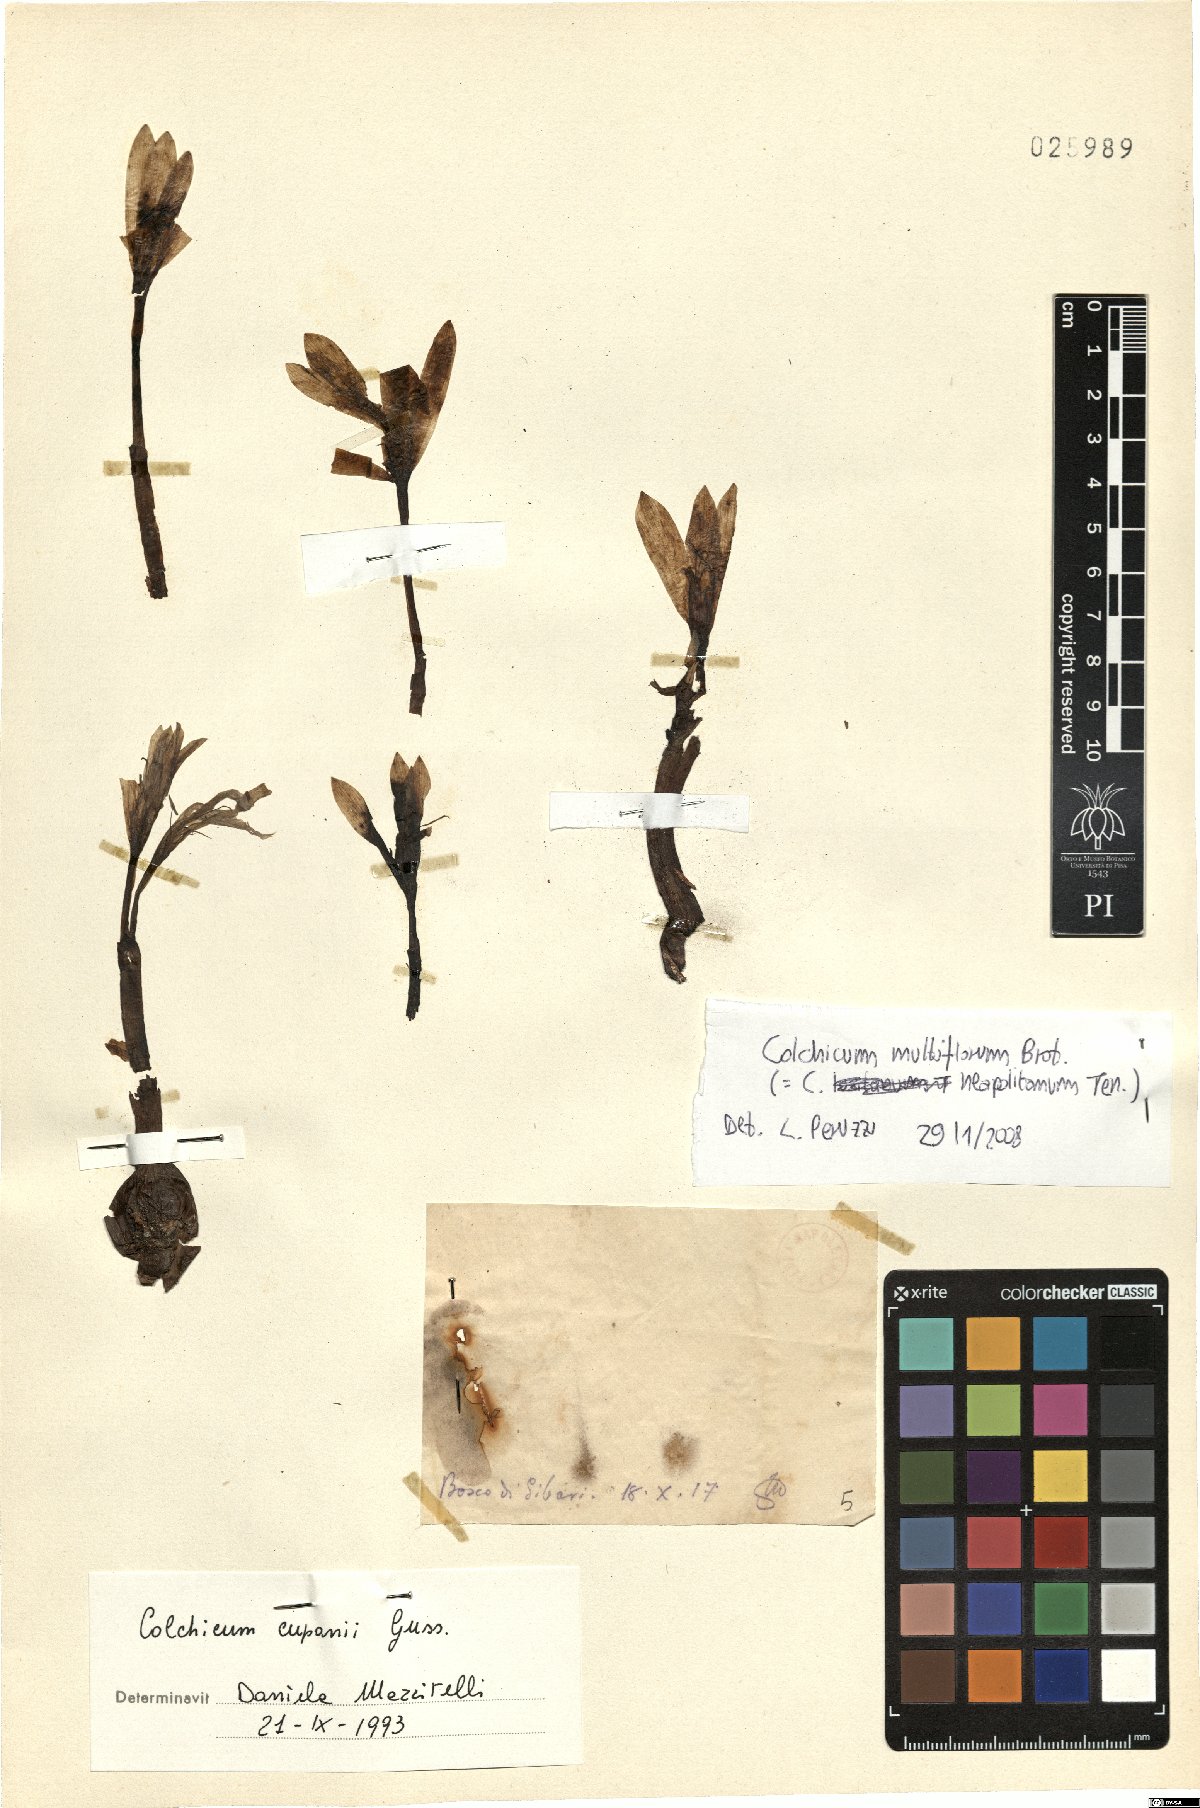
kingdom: Plantae
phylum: Tracheophyta
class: Liliopsida
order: Liliales
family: Colchicaceae
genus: Colchicum
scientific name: Colchicum multiflorum
